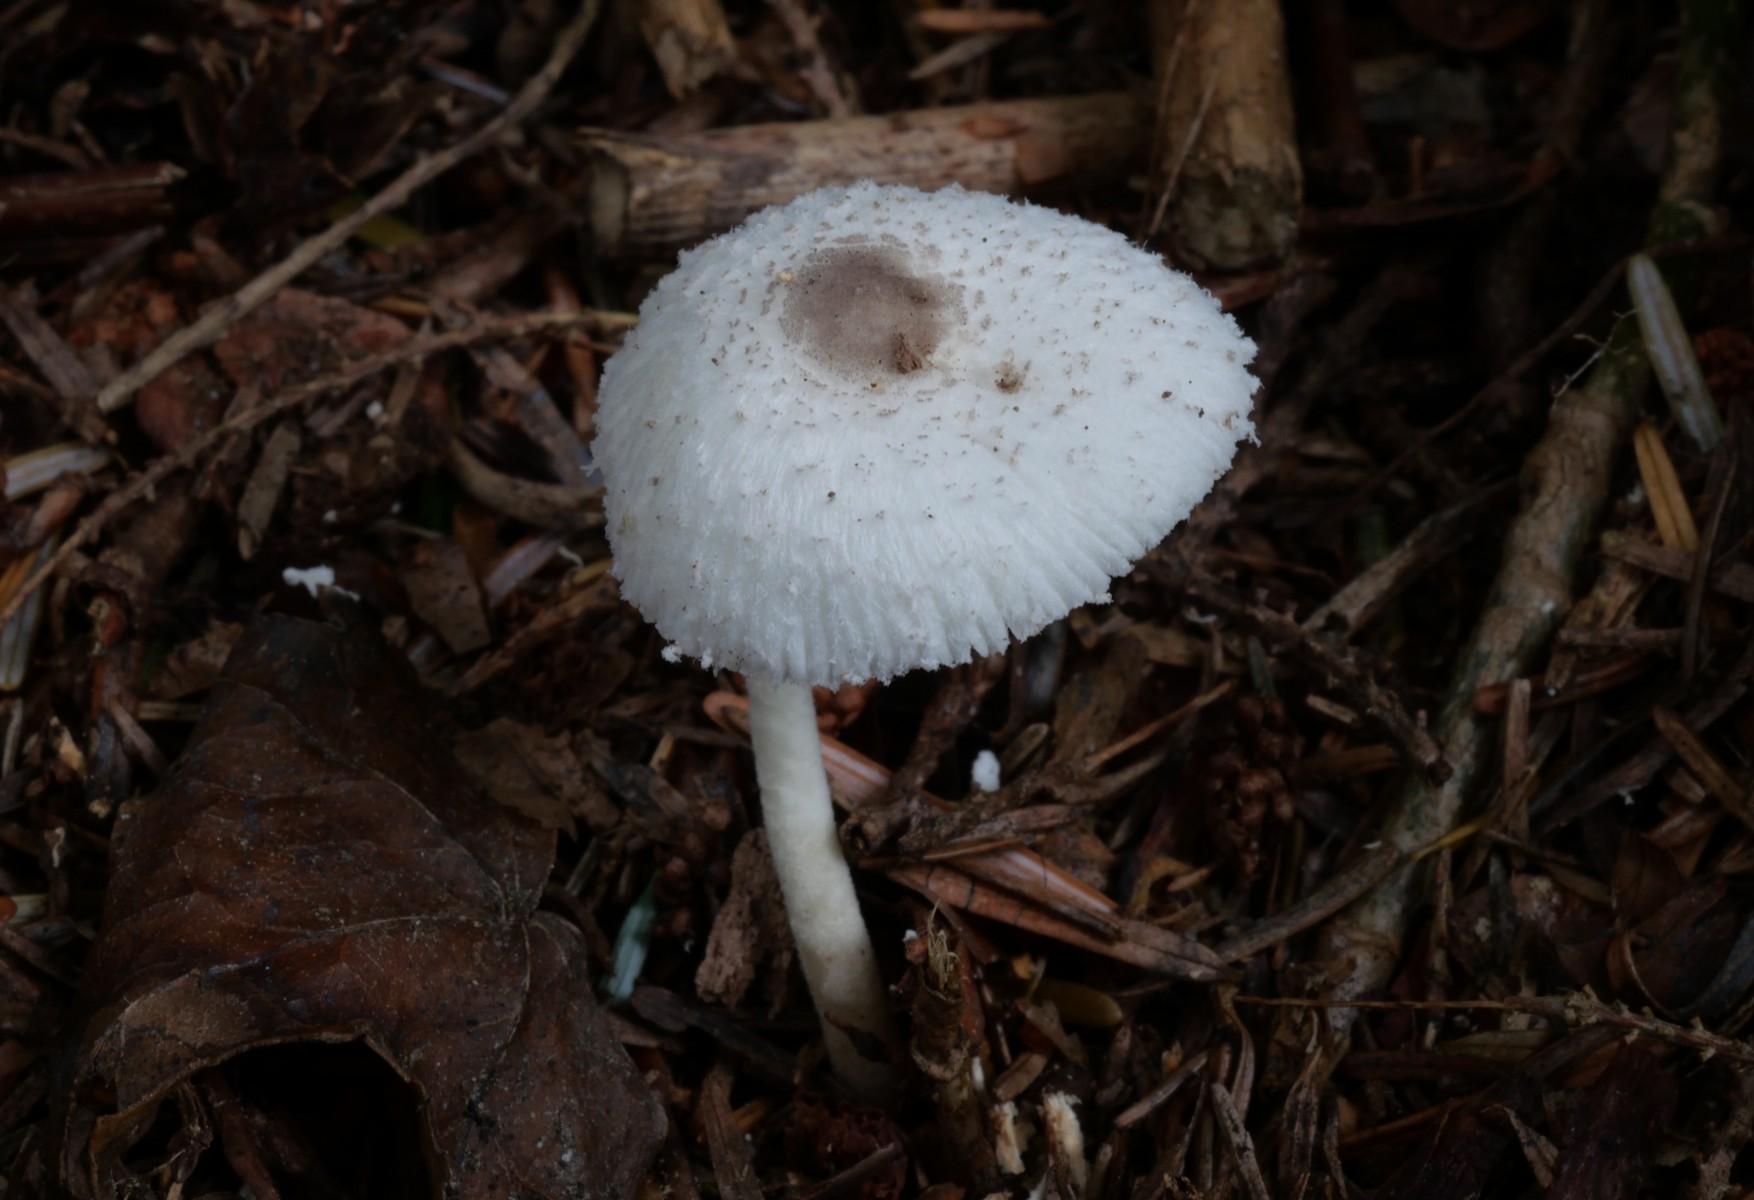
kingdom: Fungi
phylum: Basidiomycota
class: Agaricomycetes
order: Agaricales
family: Agaricaceae
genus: Leucocoprinus
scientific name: Leucocoprinus brebissonii
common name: gråsort silkehat
